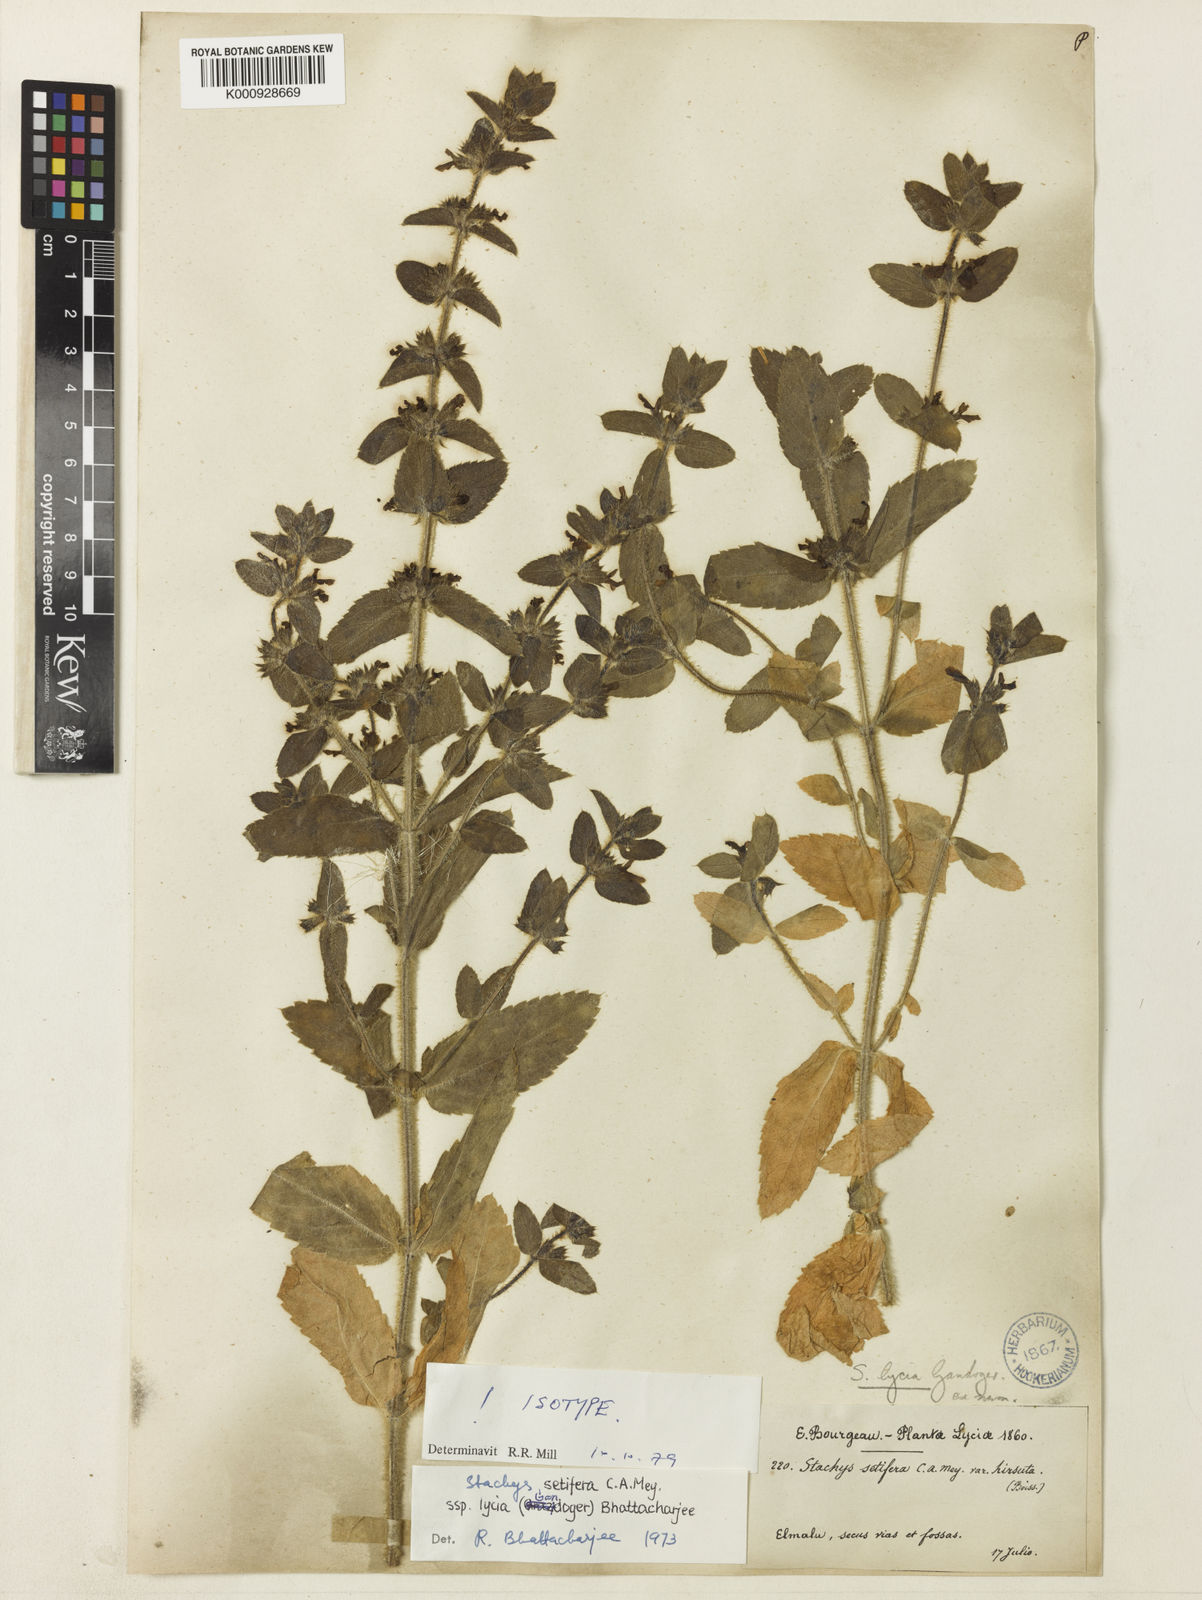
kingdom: Plantae
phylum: Tracheophyta
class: Magnoliopsida
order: Lamiales
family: Lamiaceae
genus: Stachys
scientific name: Stachys setifera
